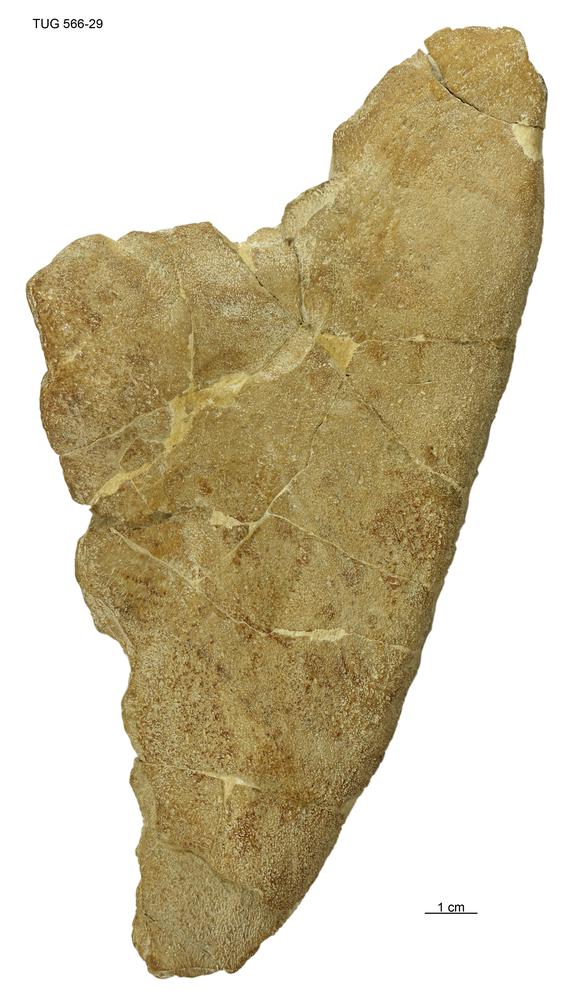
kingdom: Animalia
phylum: Chordata
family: Homostiidae
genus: Homostius
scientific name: Homostius
